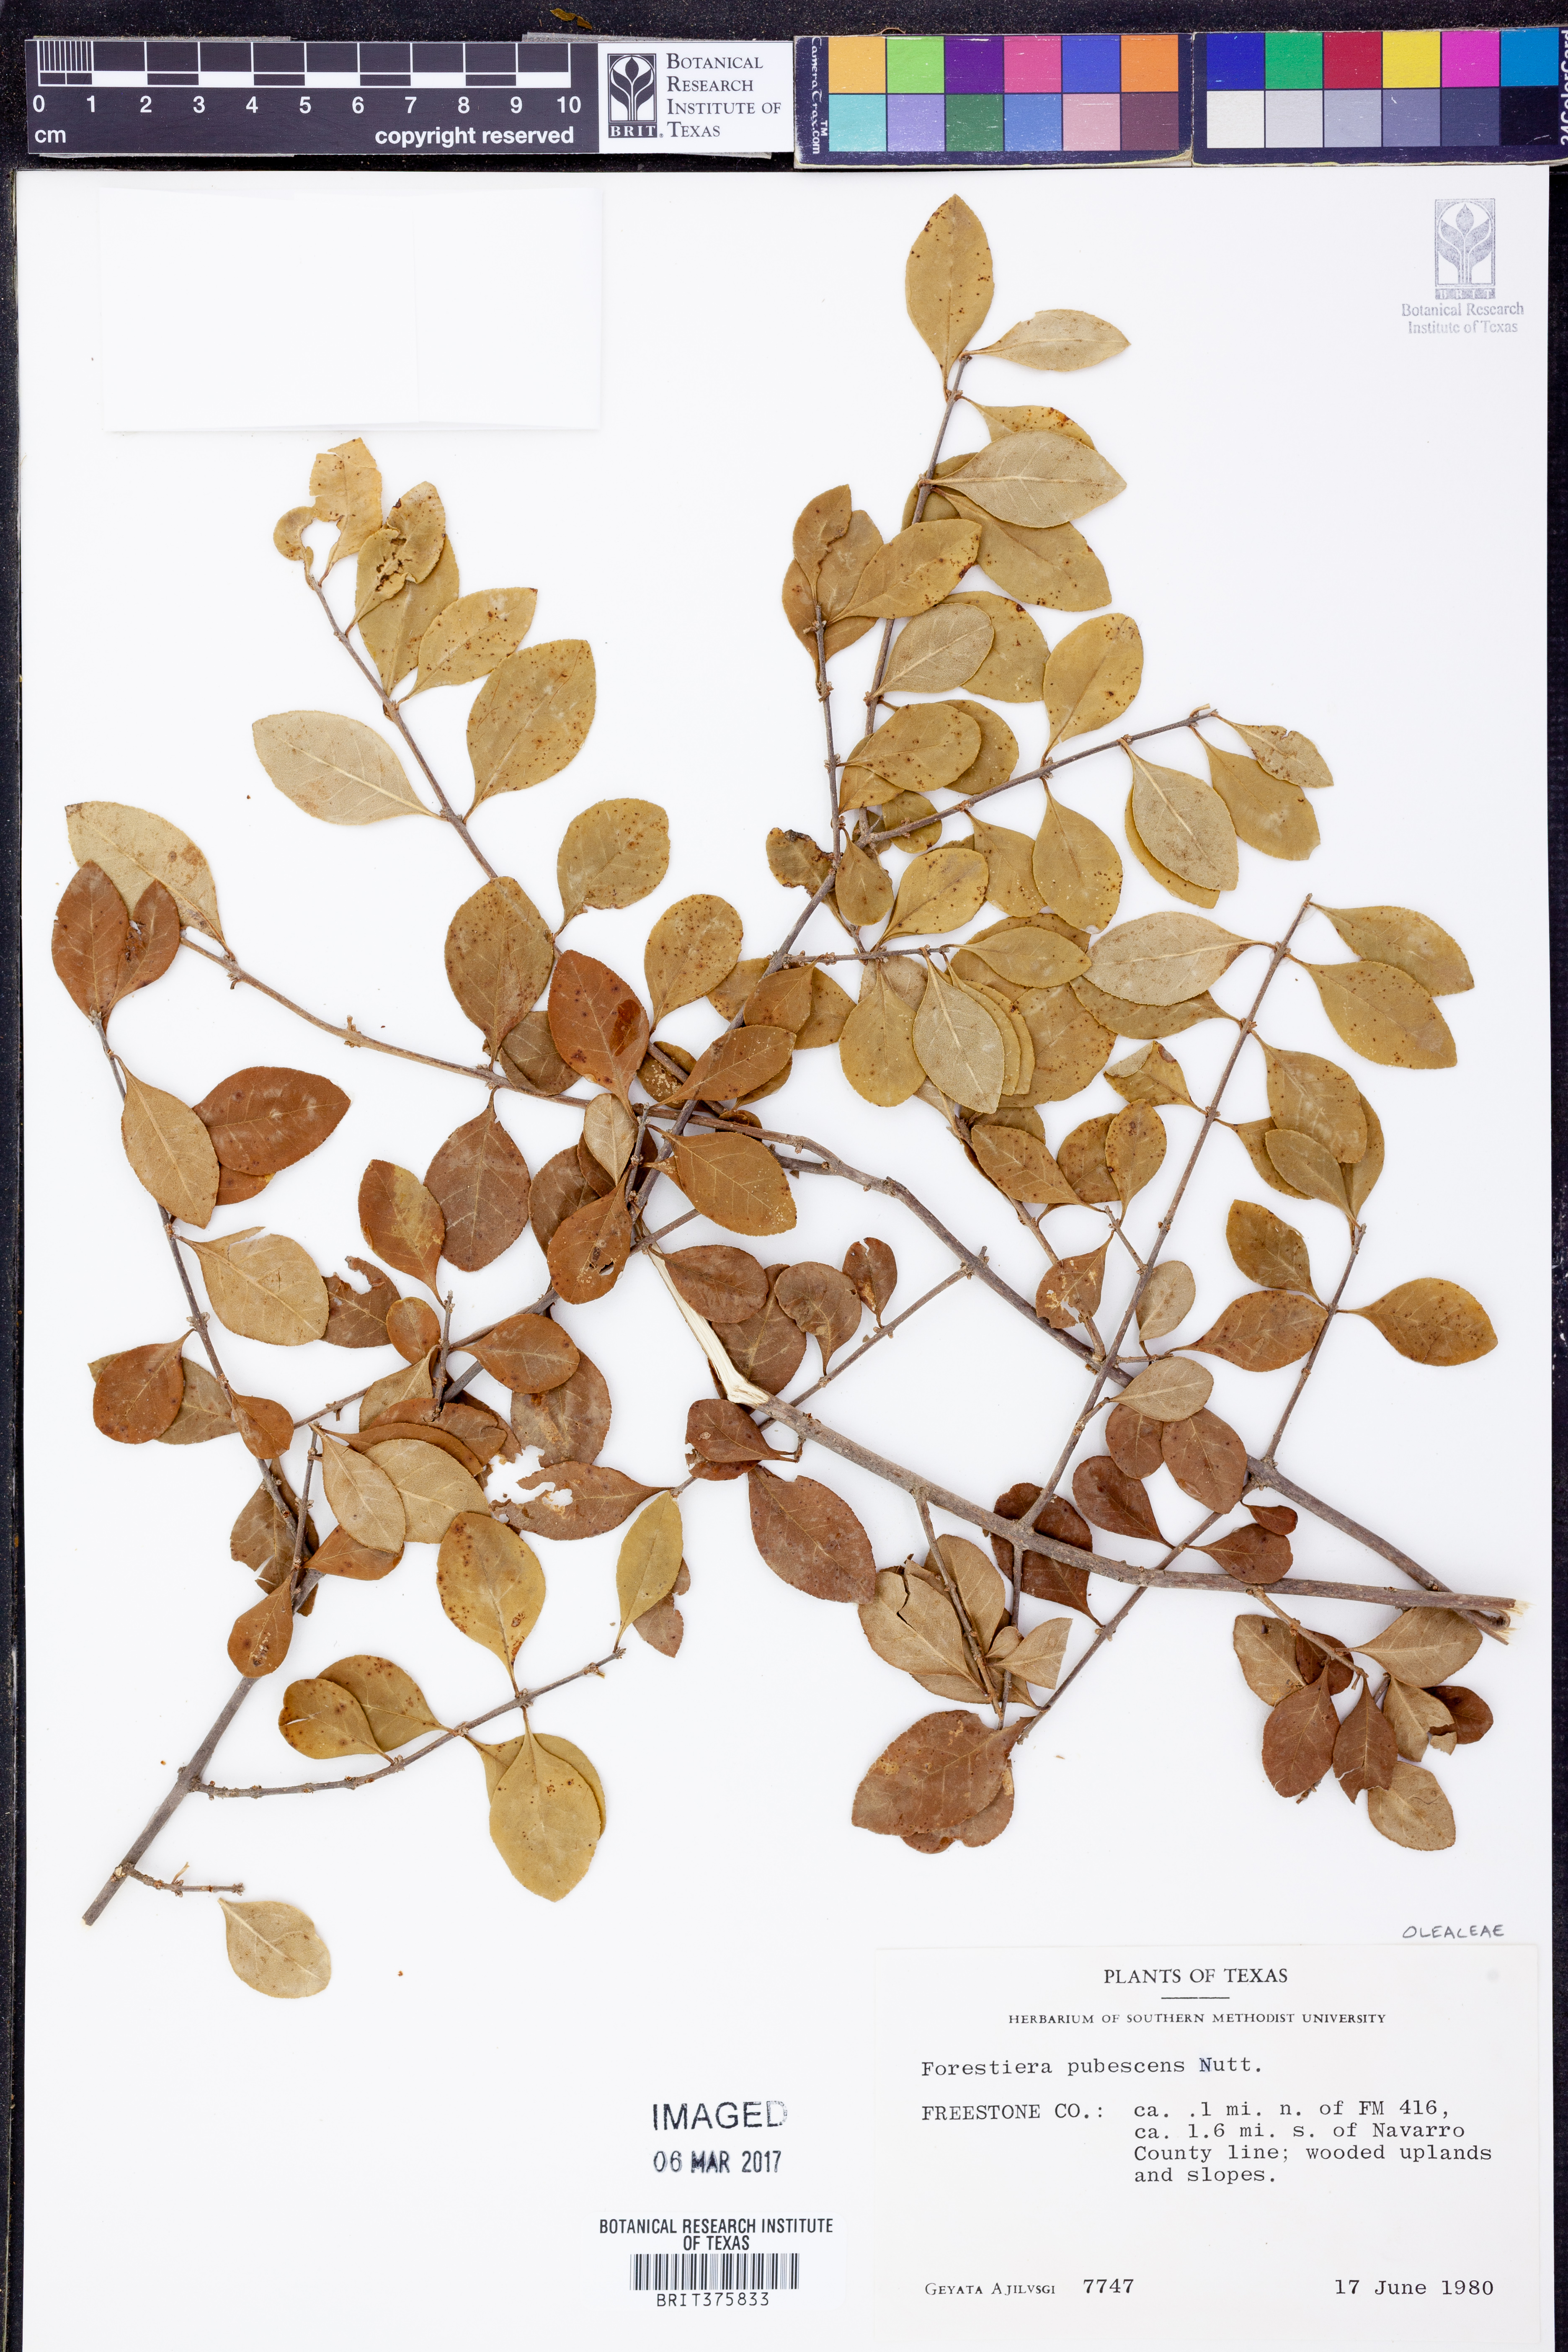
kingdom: Plantae
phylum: Tracheophyta
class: Magnoliopsida
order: Lamiales
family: Oleaceae
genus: Forestiera
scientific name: Forestiera pubescens
